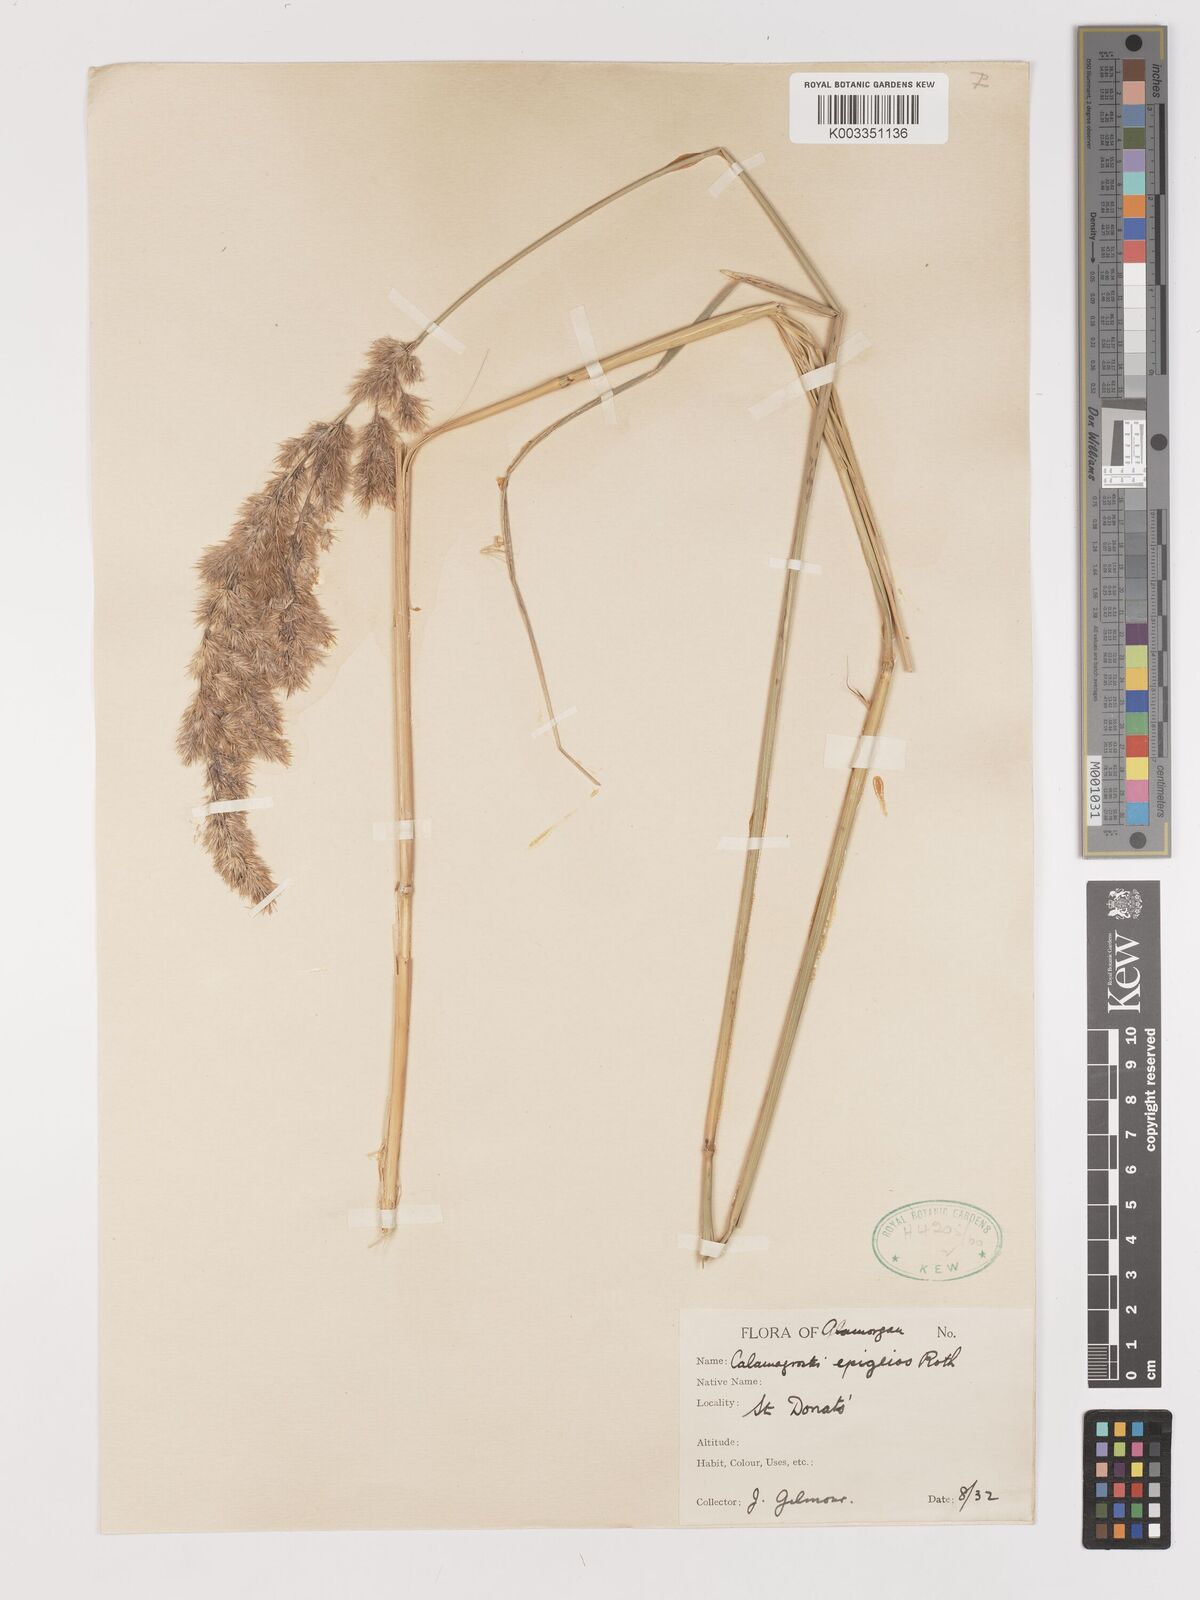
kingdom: Plantae
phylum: Tracheophyta
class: Liliopsida
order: Poales
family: Poaceae
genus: Calamagrostis
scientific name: Calamagrostis
